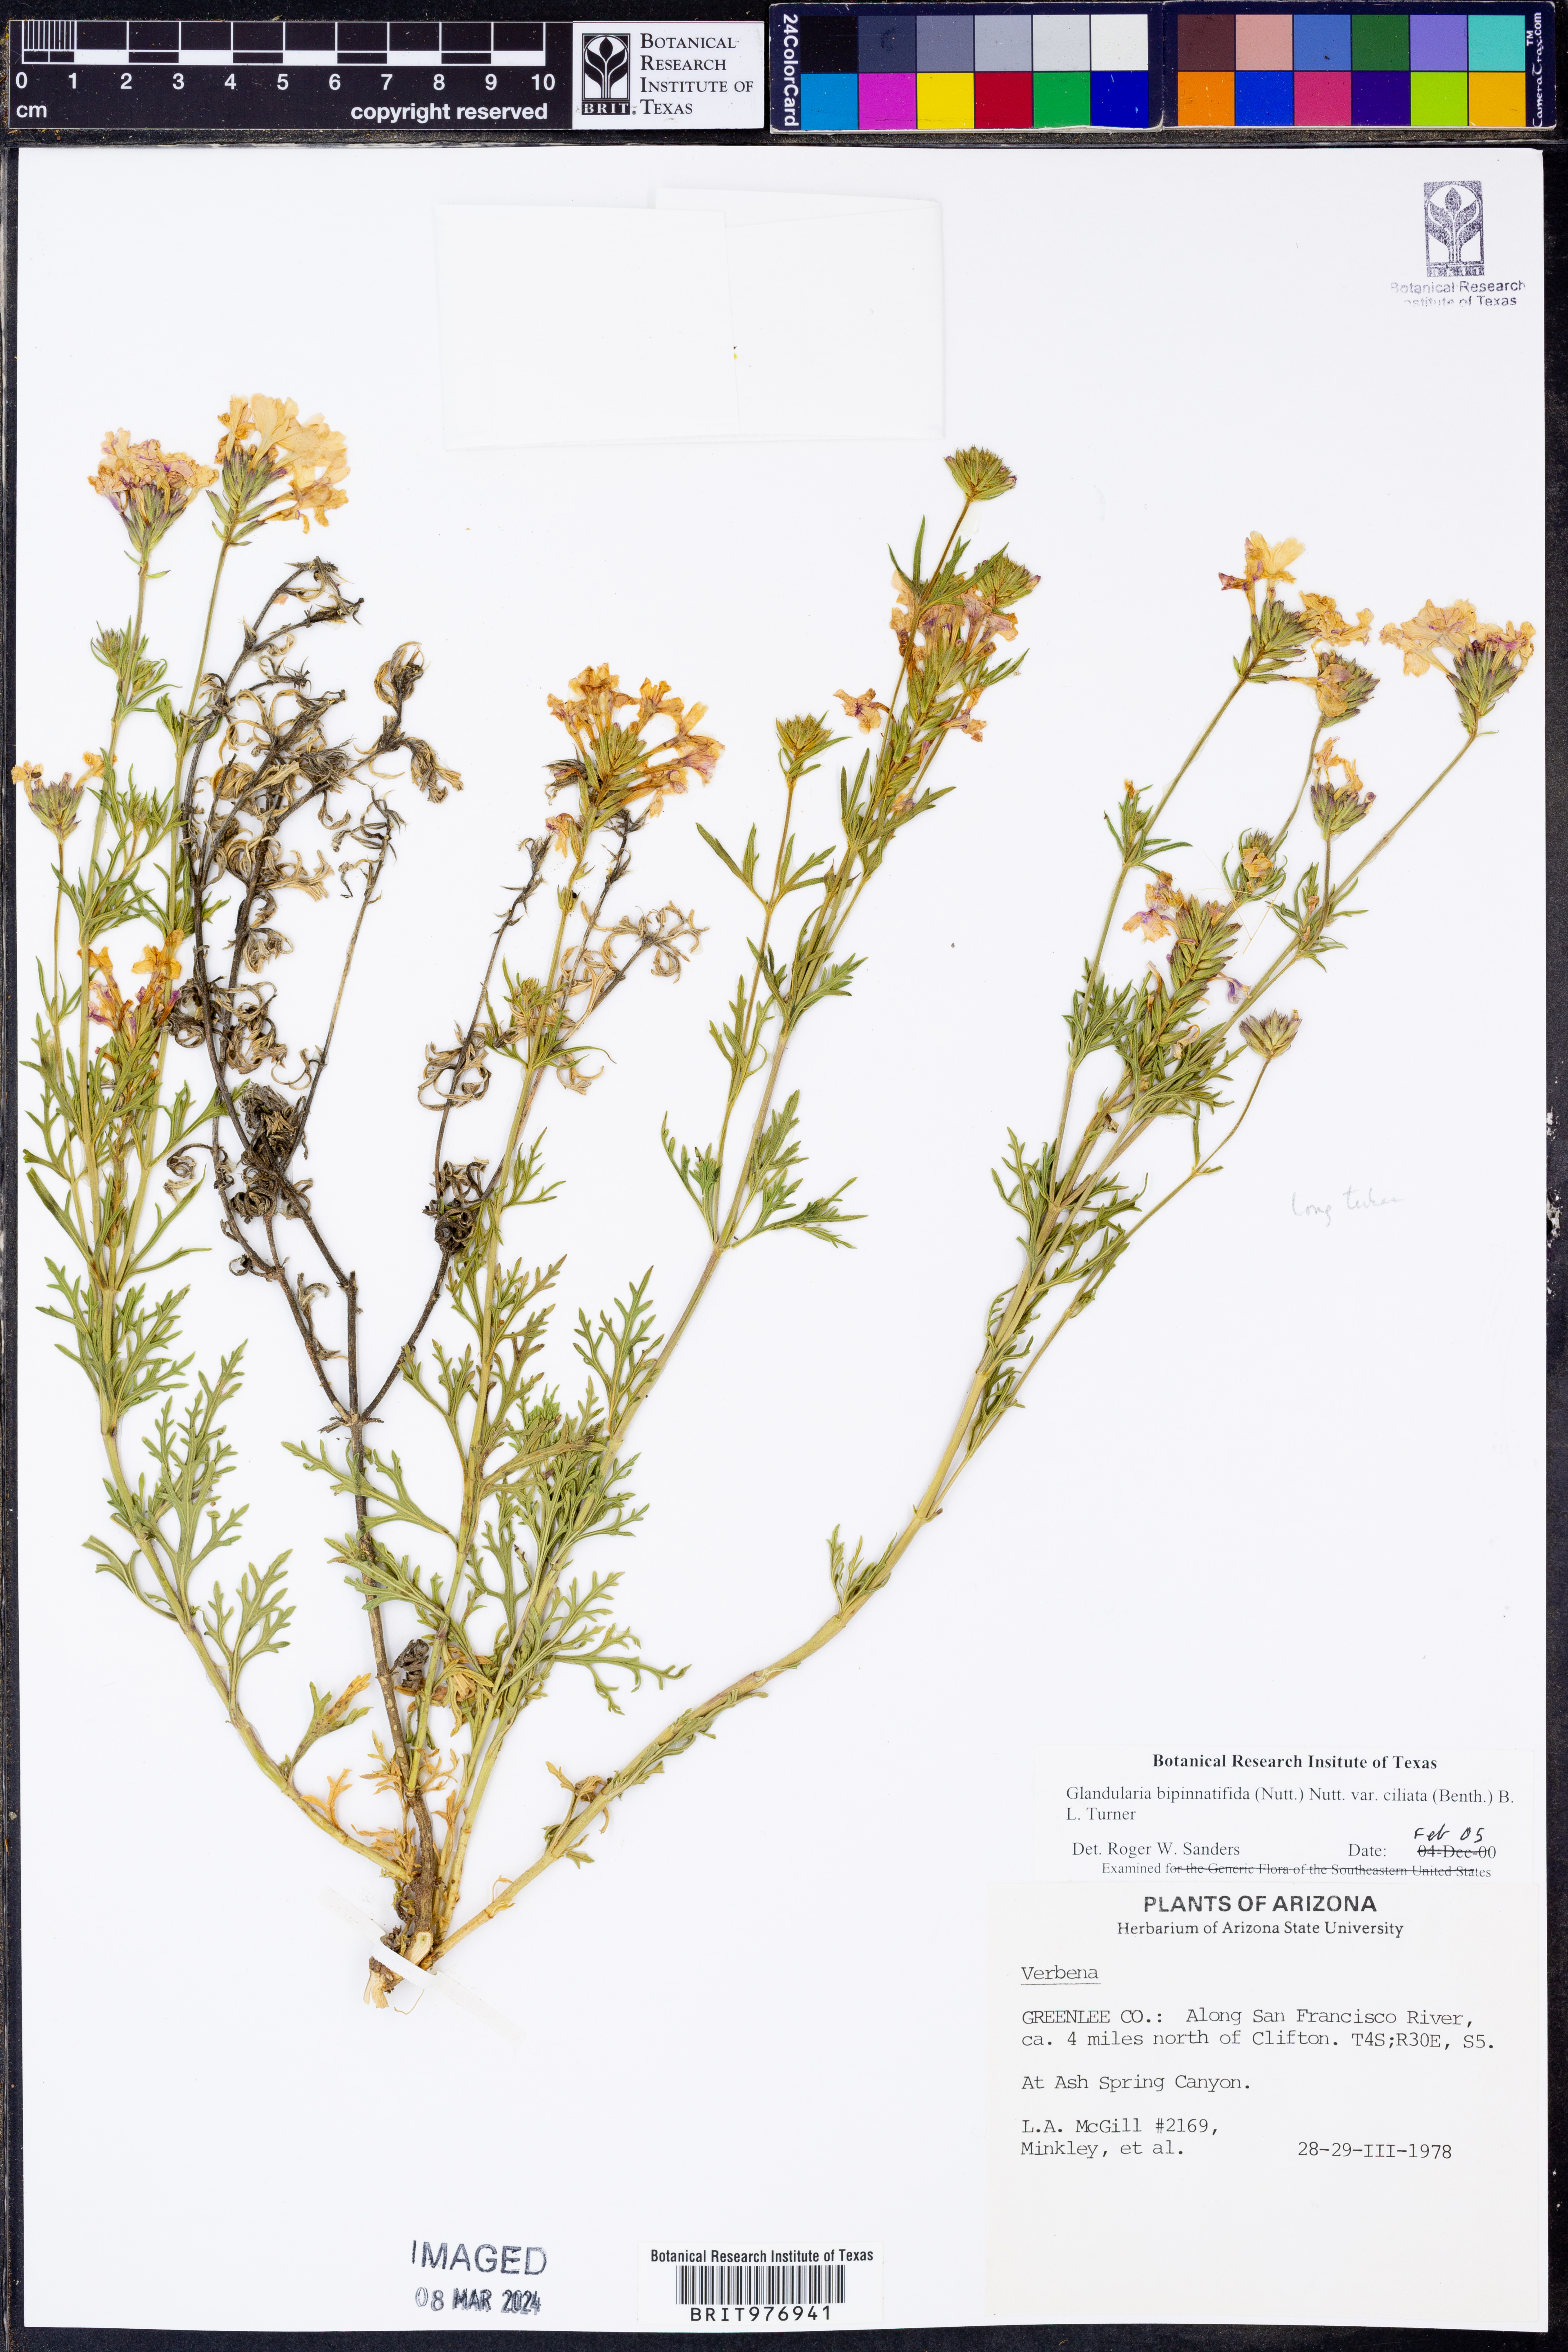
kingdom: Plantae
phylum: Tracheophyta
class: Magnoliopsida
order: Lamiales
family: Verbenaceae
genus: Verbena
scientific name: Verbena bipinnatifida
